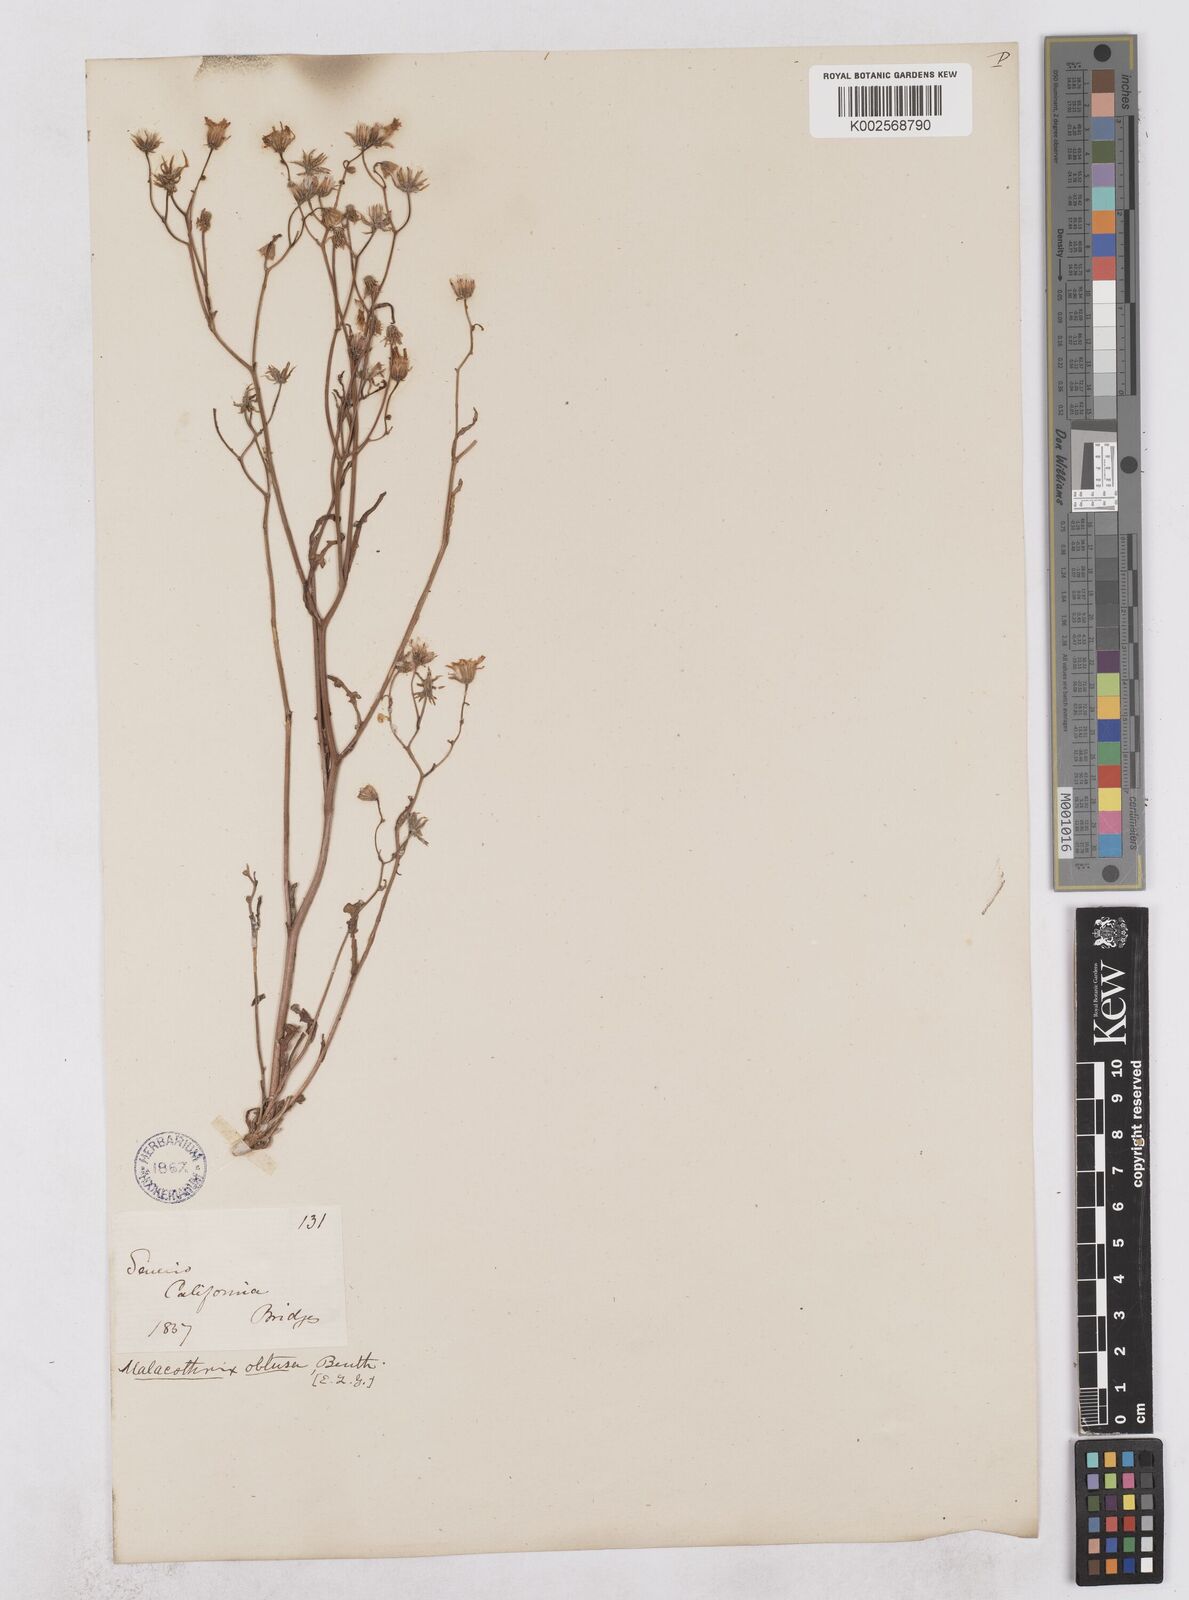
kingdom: Plantae
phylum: Tracheophyta
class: Magnoliopsida
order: Asterales
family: Asteraceae
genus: Senecio
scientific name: Senecio californicus
